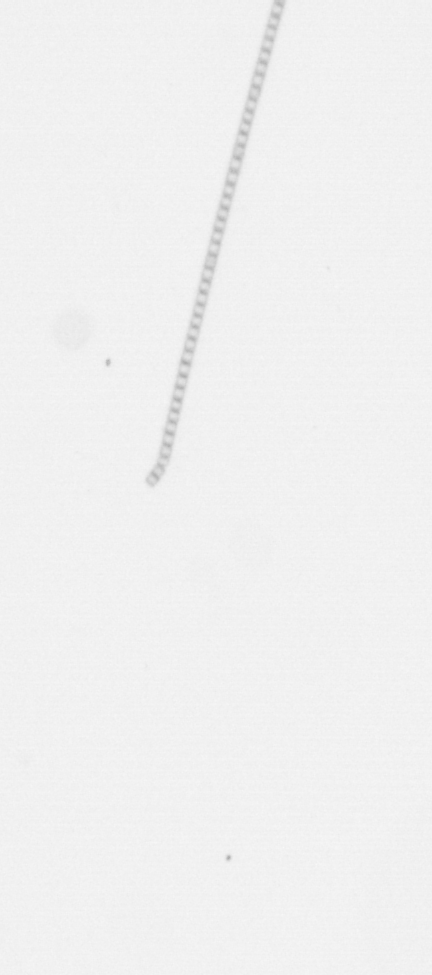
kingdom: Chromista
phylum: Ochrophyta
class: Bacillariophyceae
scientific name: Bacillariophyceae
